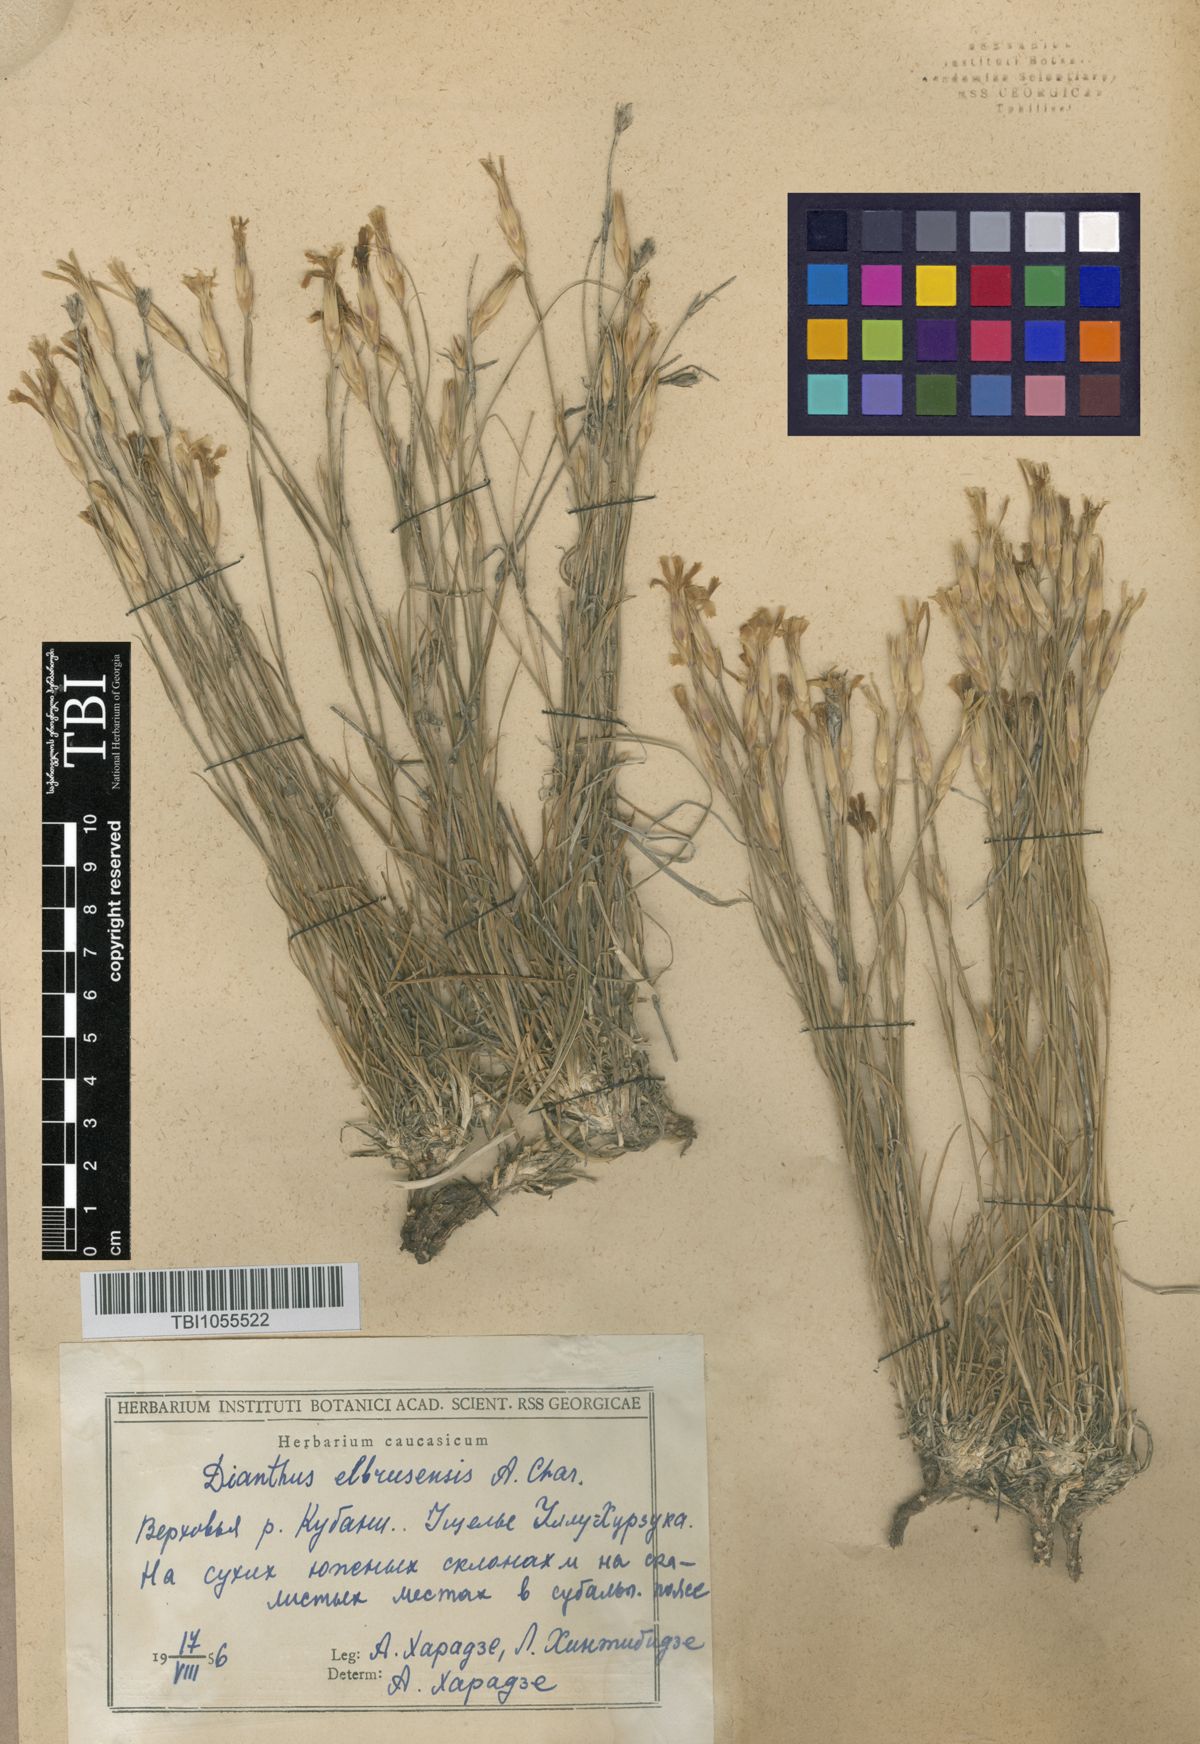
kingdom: Plantae
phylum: Tracheophyta
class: Magnoliopsida
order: Caryophyllales
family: Caryophyllaceae
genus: Dianthus
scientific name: Dianthus
